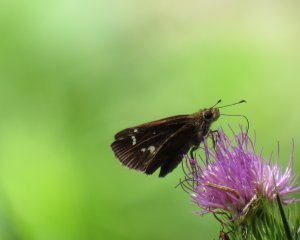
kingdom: Animalia
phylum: Arthropoda
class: Insecta
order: Lepidoptera
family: Hesperiidae
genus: Lerema
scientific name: Lerema accius
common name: Clouded Skipper
